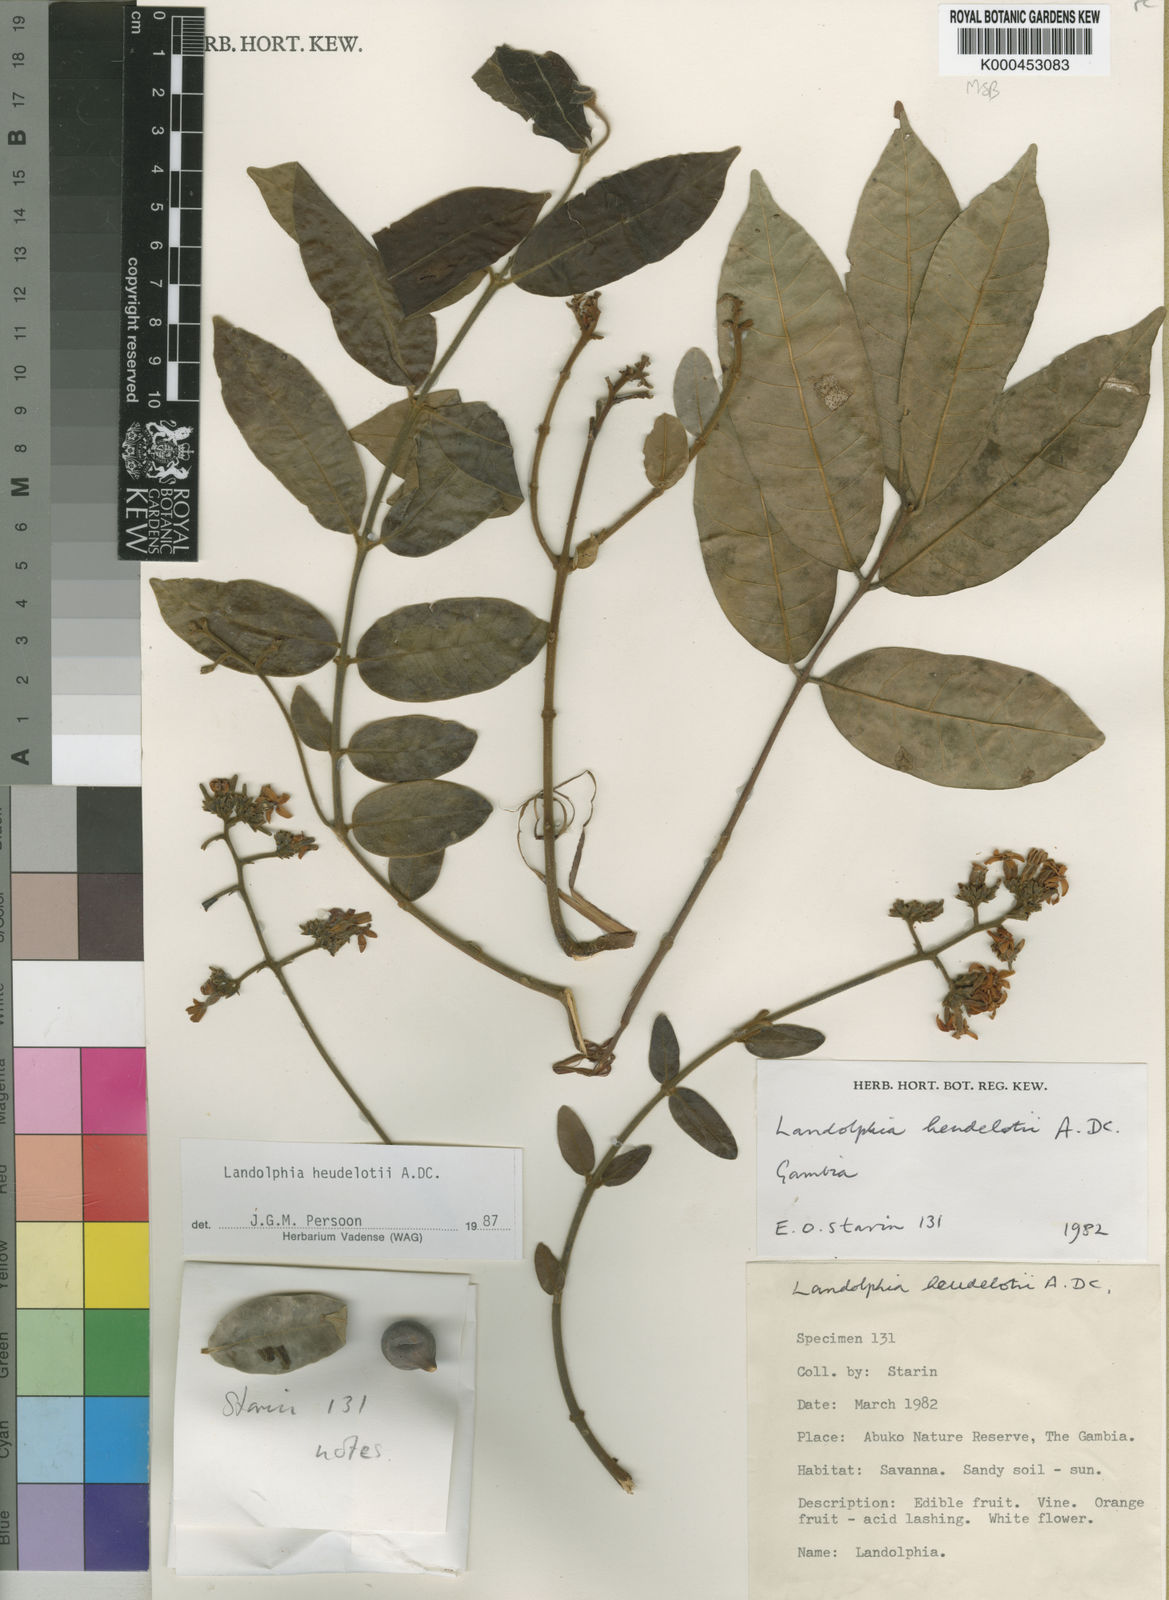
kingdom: Plantae
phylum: Tracheophyta
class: Magnoliopsida
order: Gentianales
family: Apocynaceae
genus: Landolphia
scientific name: Landolphia heudelotii
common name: Landolphia-rubber
